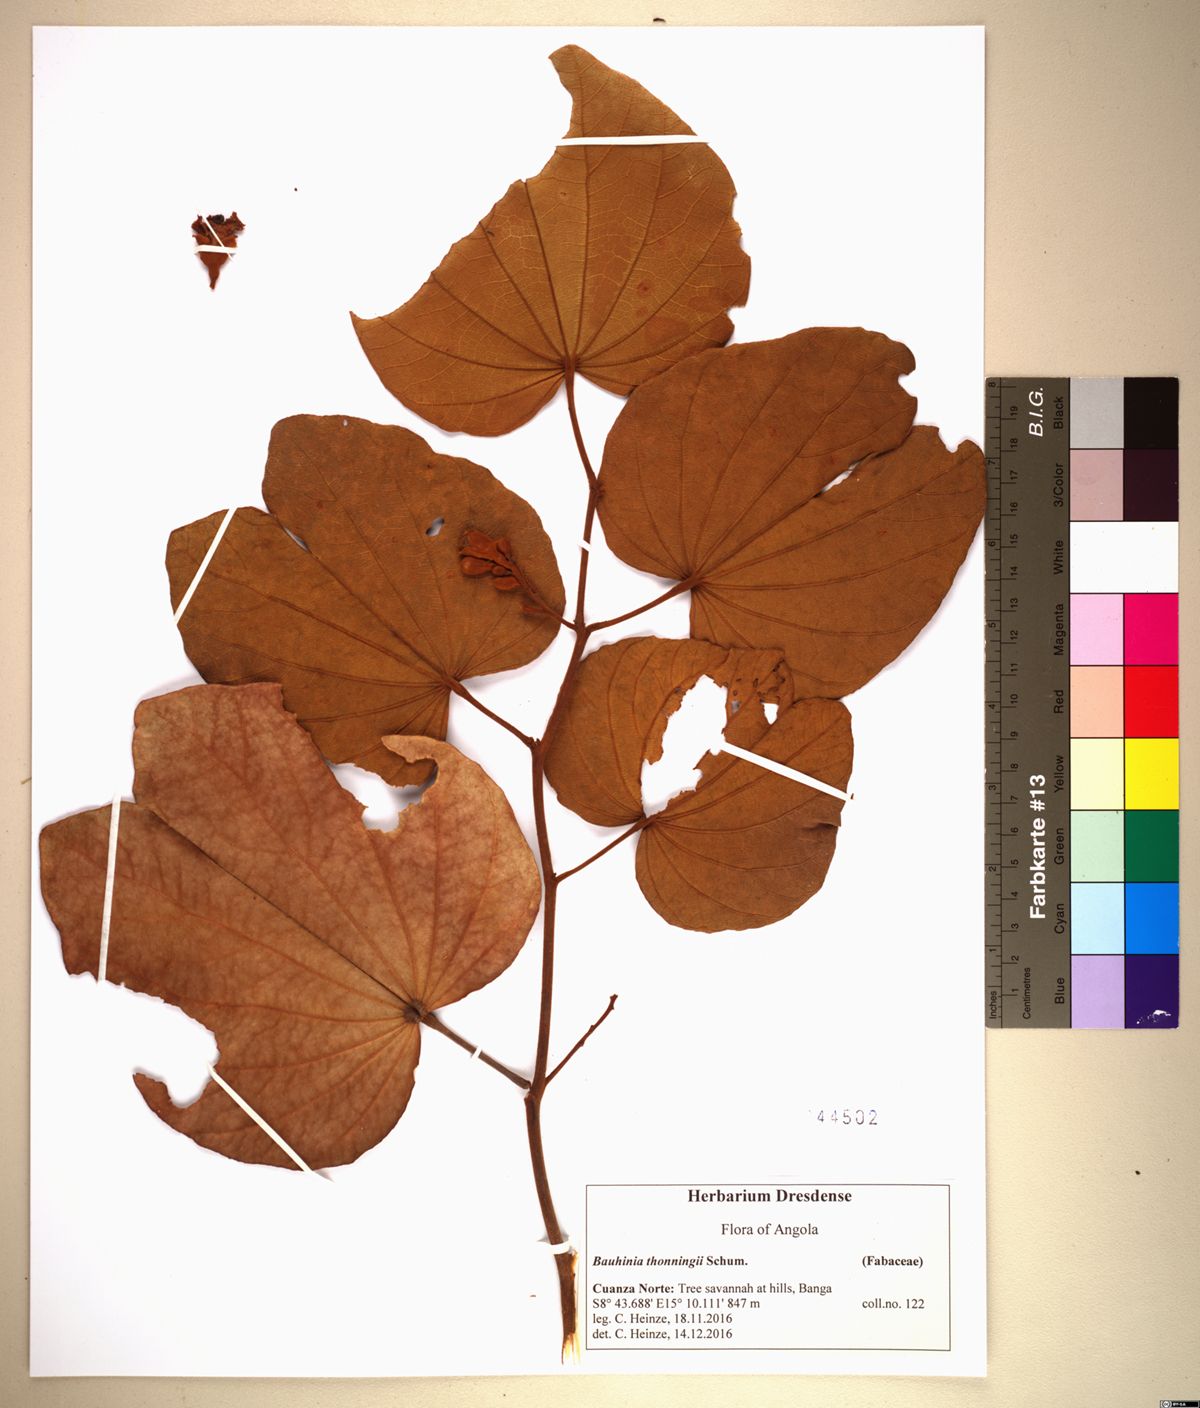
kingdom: Plantae
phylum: Tracheophyta
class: Magnoliopsida
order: Fabales
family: Fabaceae
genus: Piliostigma
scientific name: Piliostigma thonningii
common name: Kao
